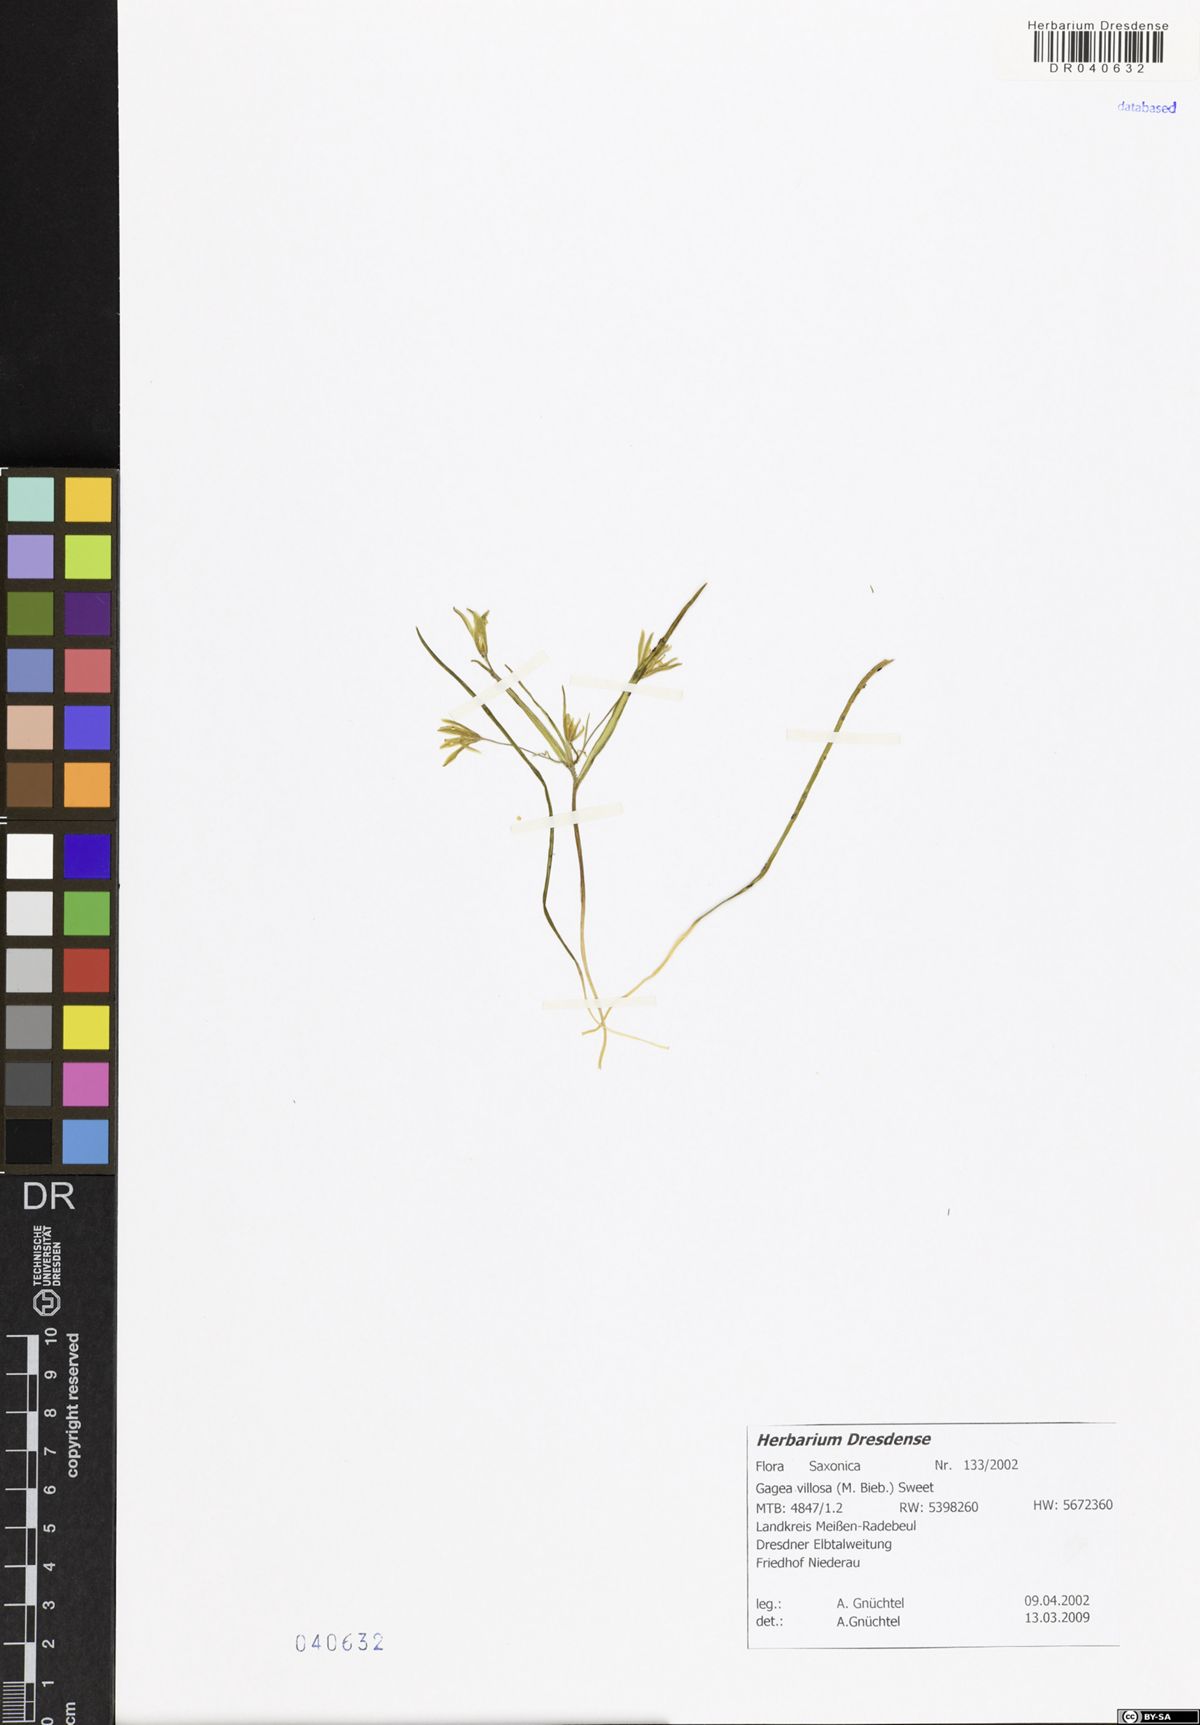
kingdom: Plantae
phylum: Tracheophyta
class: Liliopsida
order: Liliales
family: Liliaceae
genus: Gagea
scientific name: Gagea villosa
